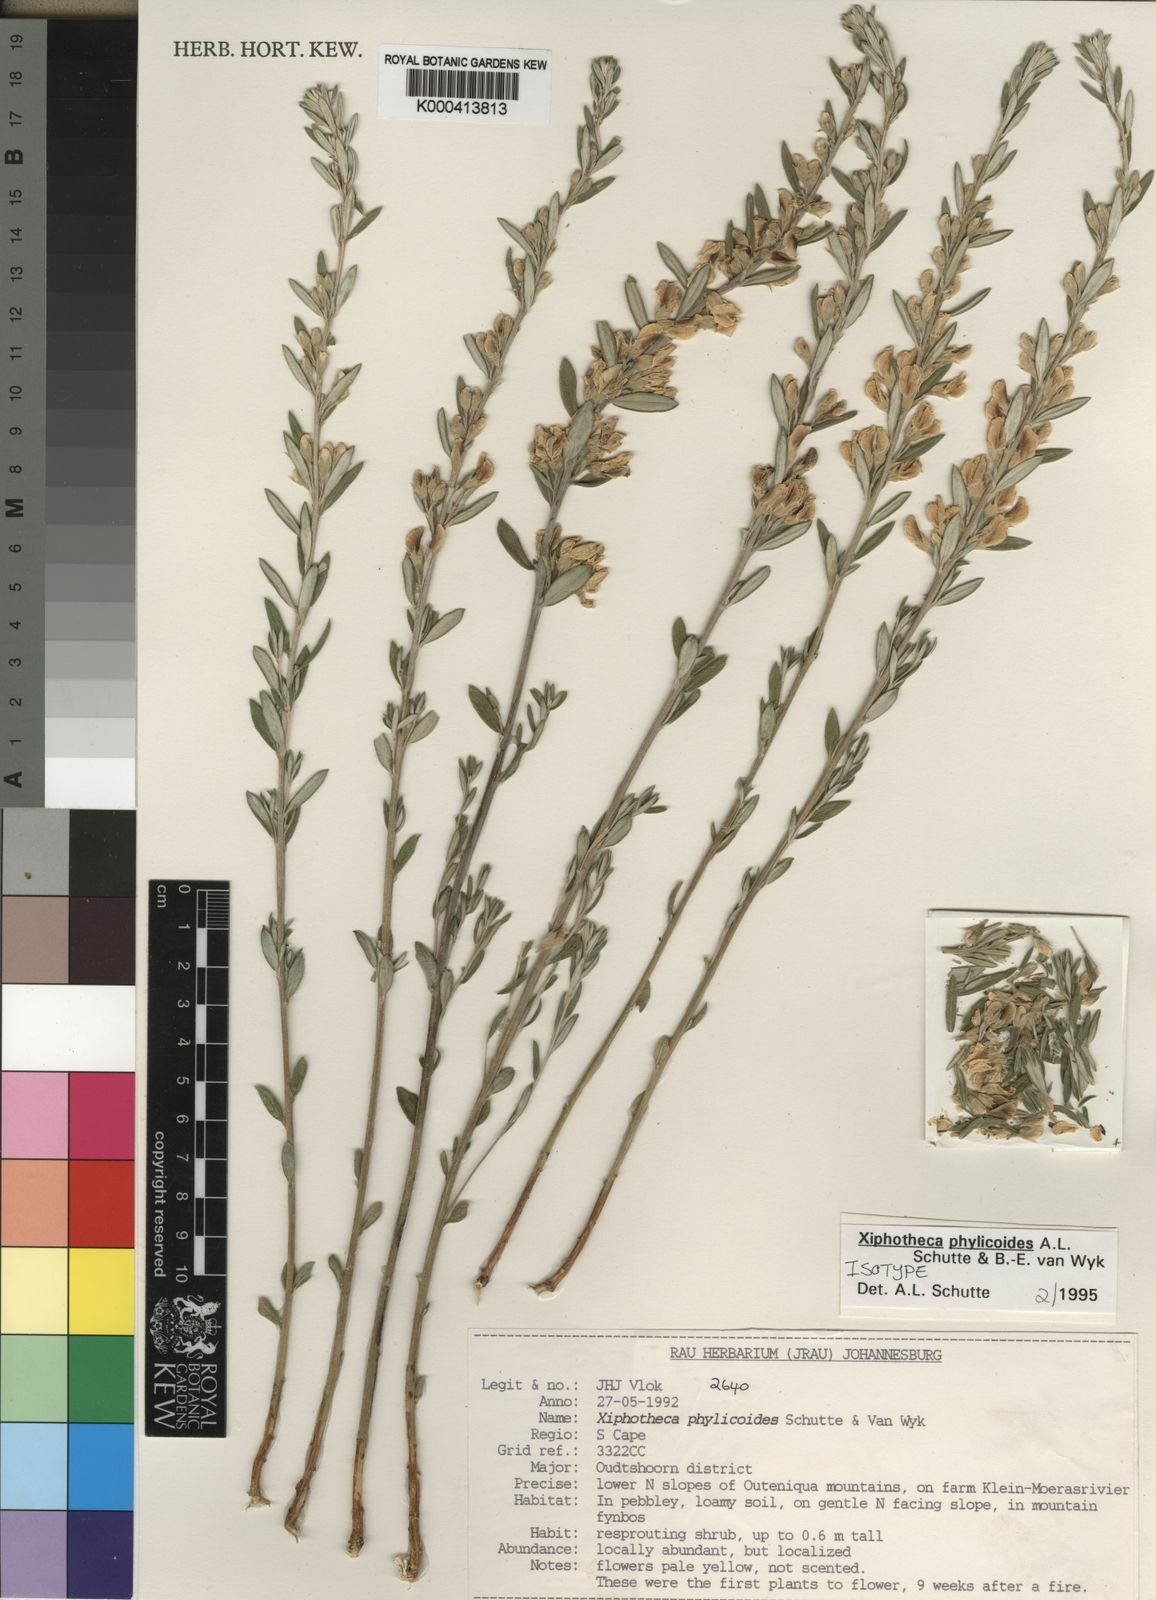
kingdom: Plantae
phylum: Tracheophyta
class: Magnoliopsida
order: Fabales
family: Fabaceae
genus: Xiphotheca
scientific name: Xiphotheca phylicoides
